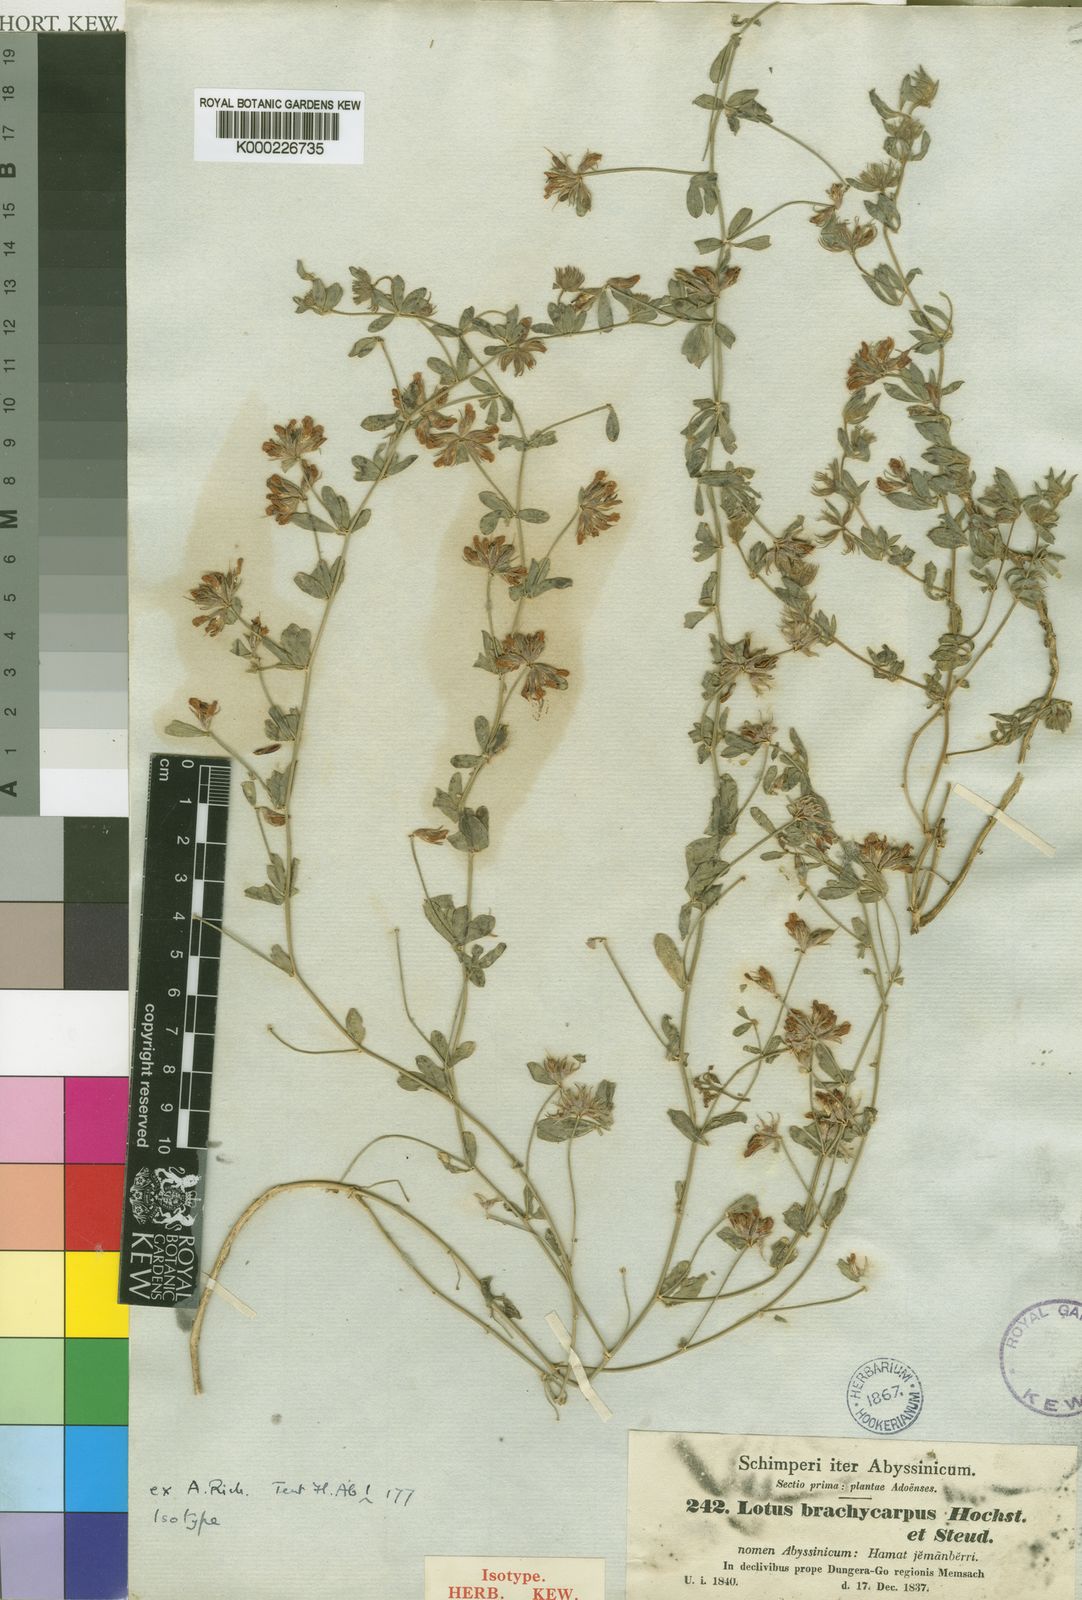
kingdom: Plantae
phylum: Tracheophyta
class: Magnoliopsida
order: Fabales
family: Fabaceae
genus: Lotus
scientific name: Lotus quinatus
